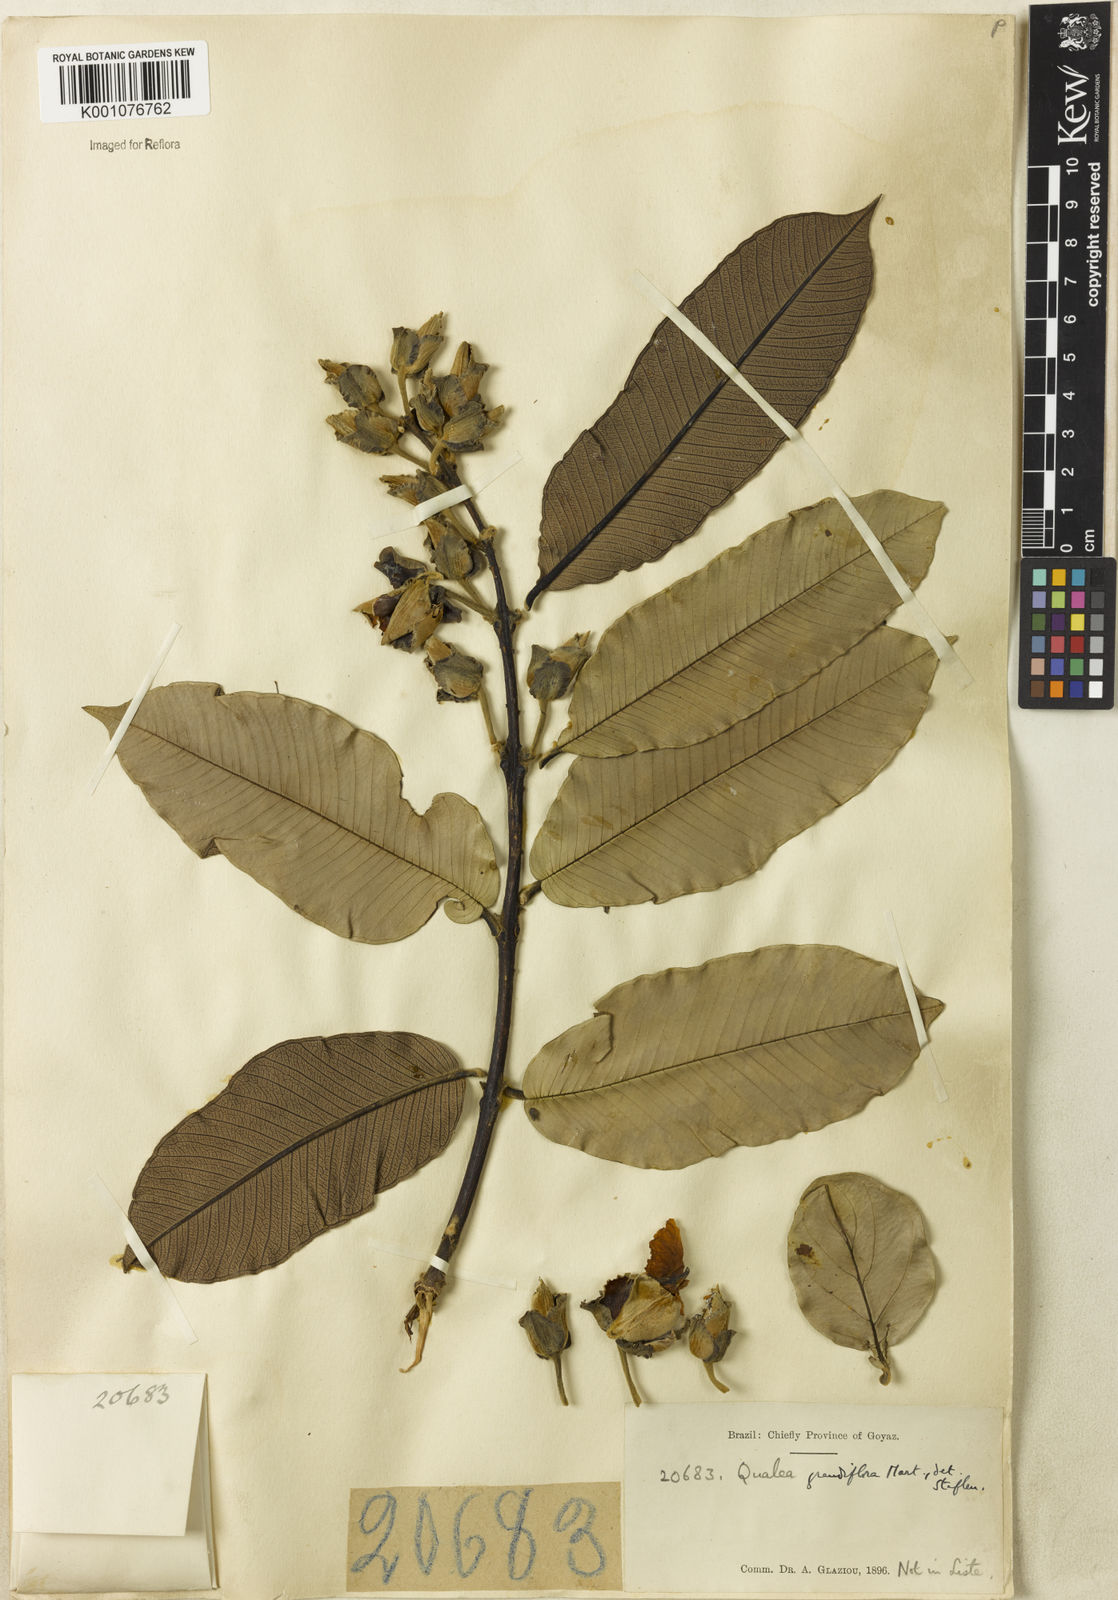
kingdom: Plantae
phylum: Tracheophyta
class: Magnoliopsida
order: Myrtales
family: Vochysiaceae
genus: Qualea
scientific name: Qualea grandiflora
